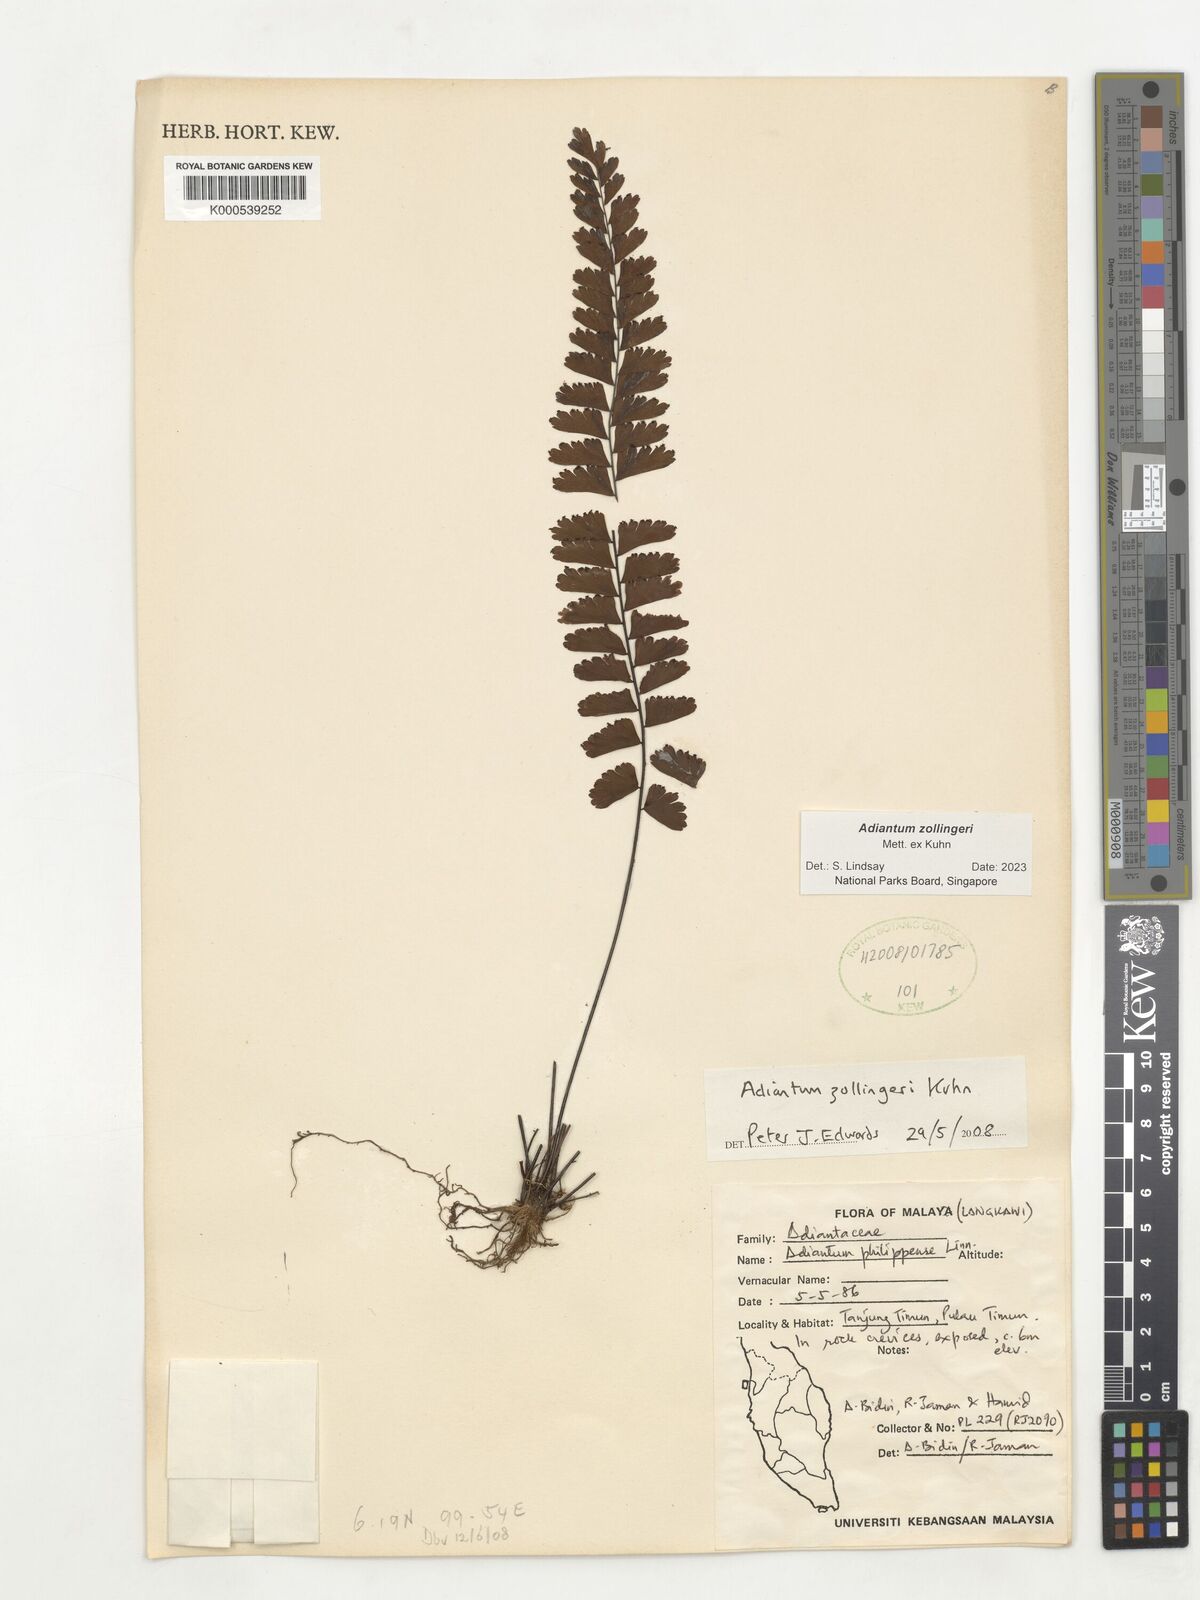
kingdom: Plantae
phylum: Tracheophyta
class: Polypodiopsida
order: Polypodiales
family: Pteridaceae
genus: Adiantum
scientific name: Adiantum zollingeri
